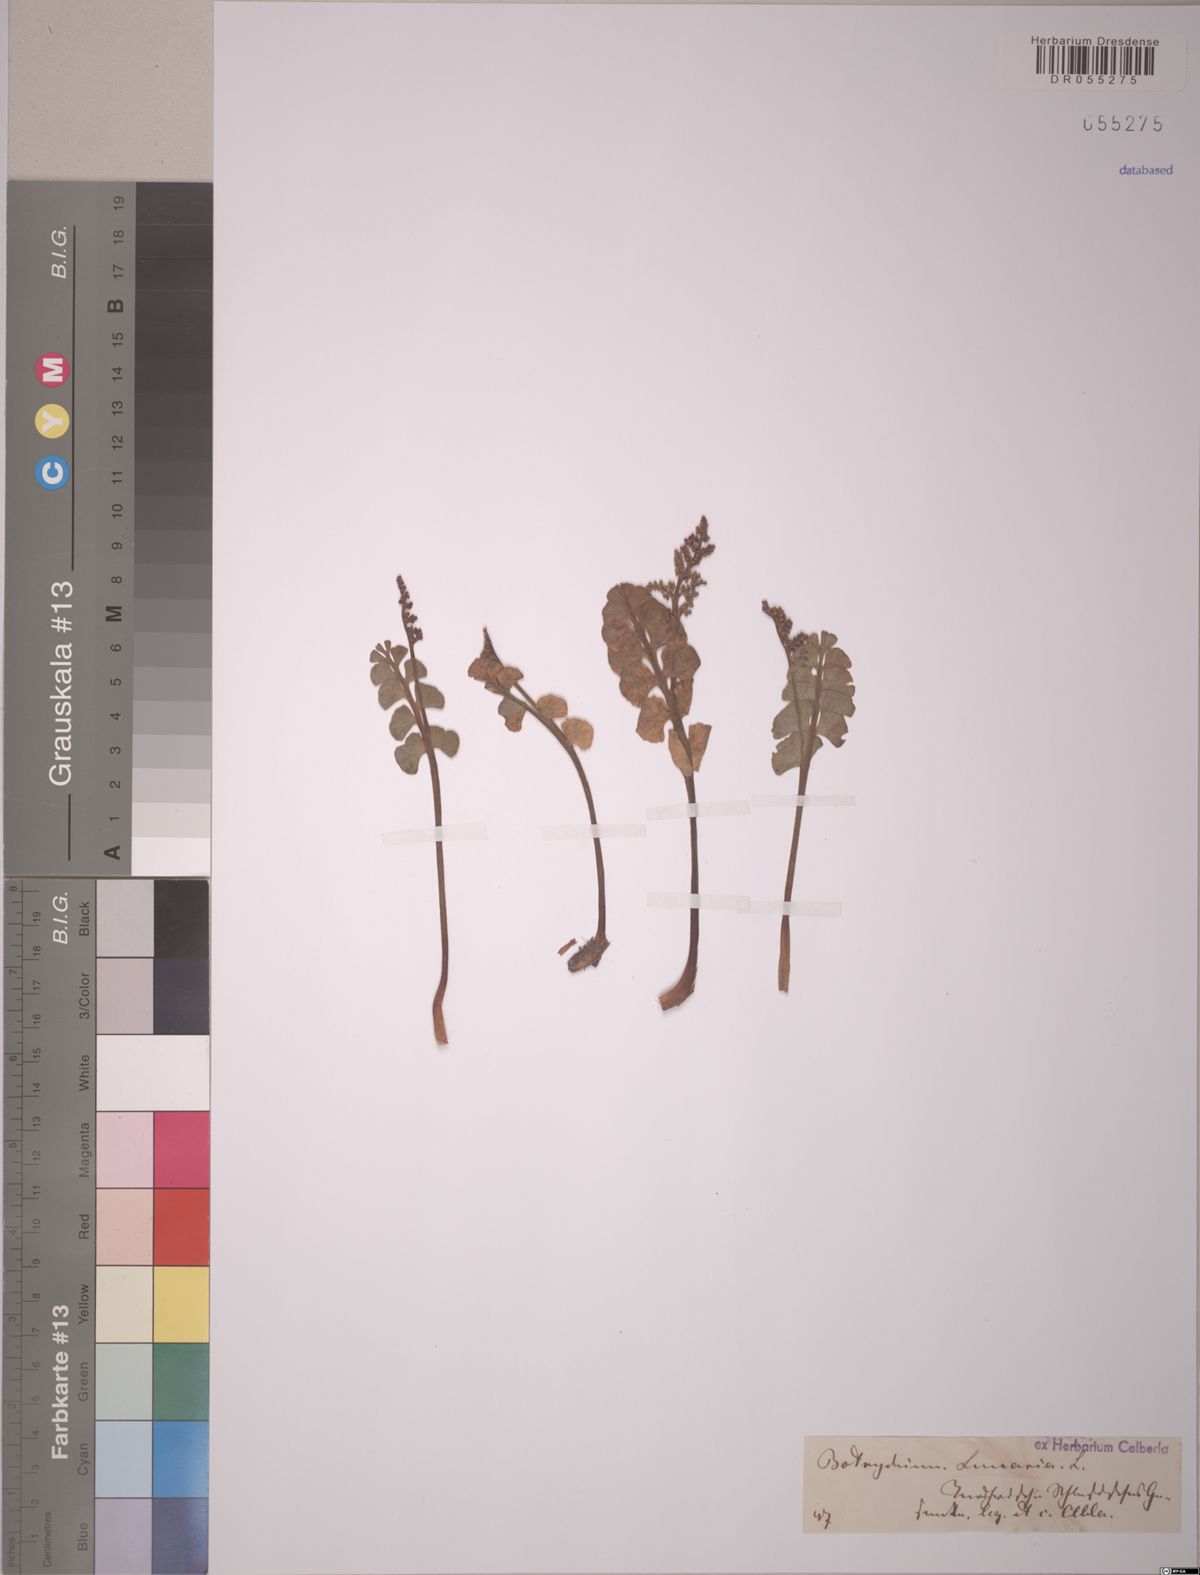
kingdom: Plantae
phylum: Tracheophyta
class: Polypodiopsida
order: Ophioglossales
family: Ophioglossaceae
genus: Botrychium
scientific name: Botrychium lunaria
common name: Moonwort
